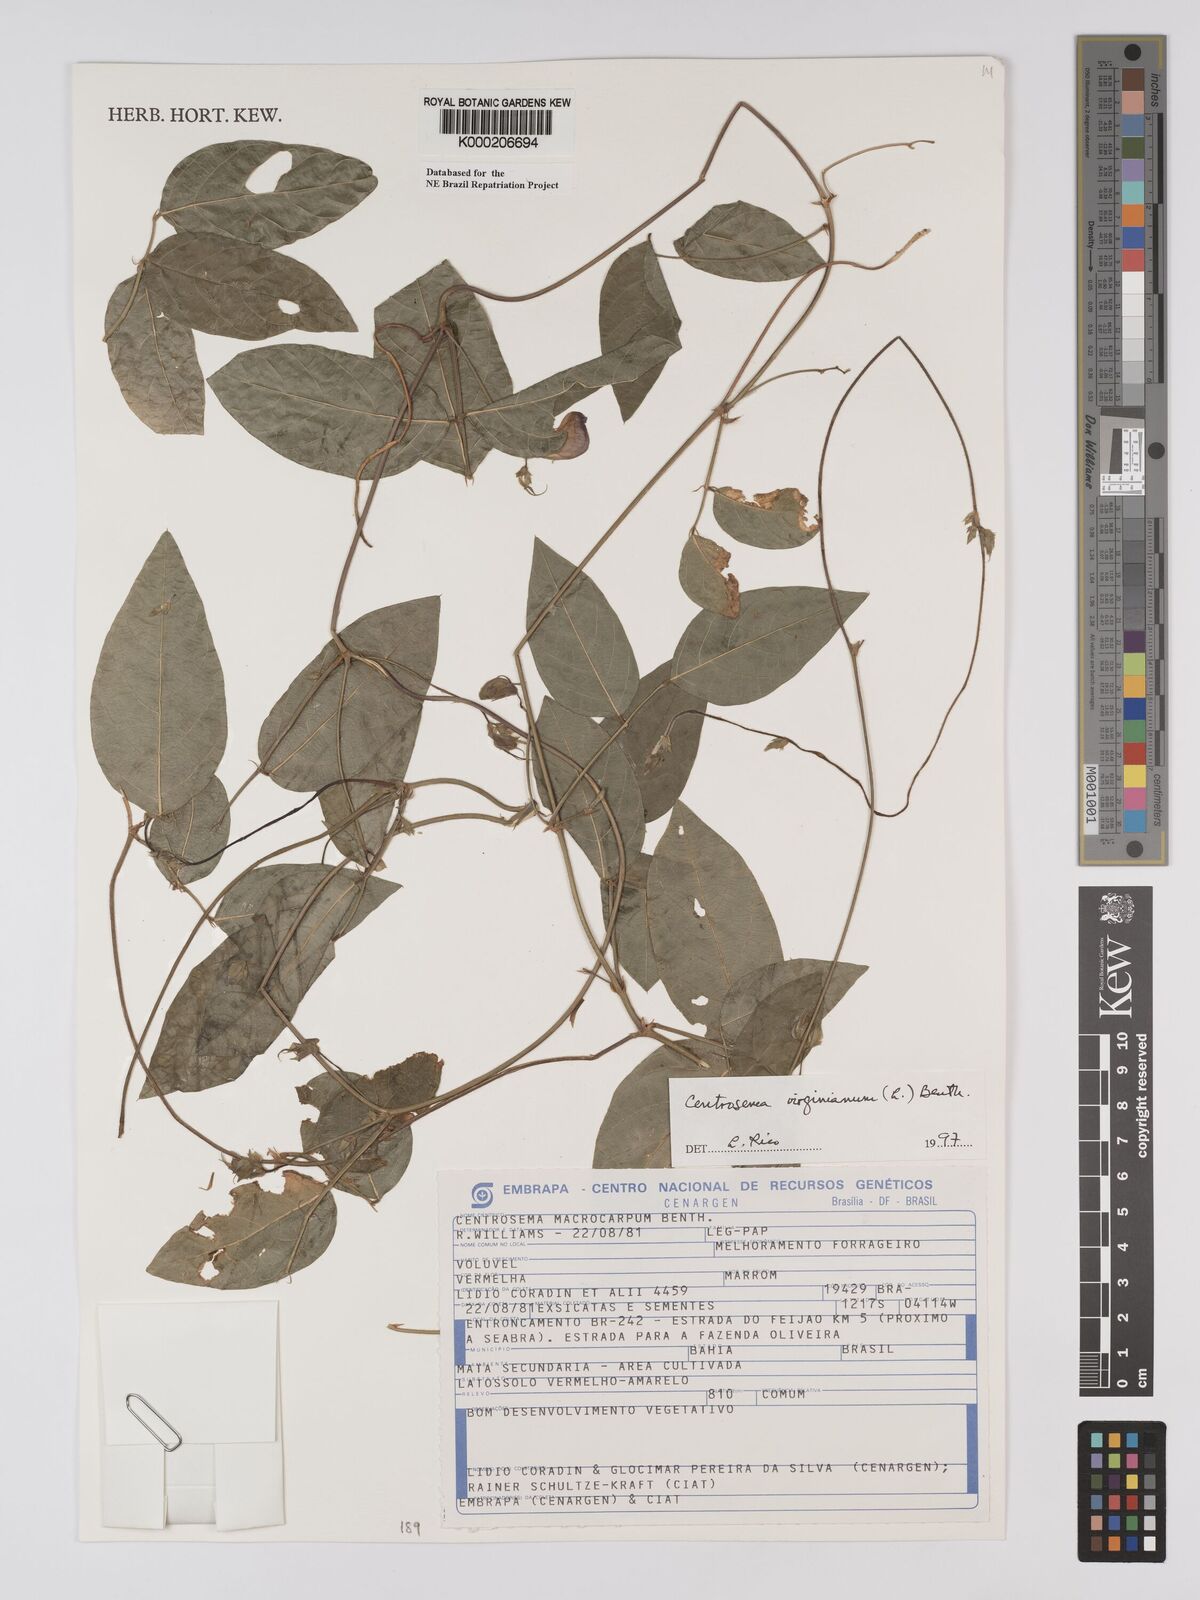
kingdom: Plantae
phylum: Tracheophyta
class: Magnoliopsida
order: Fabales
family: Fabaceae
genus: Centrosema
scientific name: Centrosema virginianum
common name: Butterfly-pea
